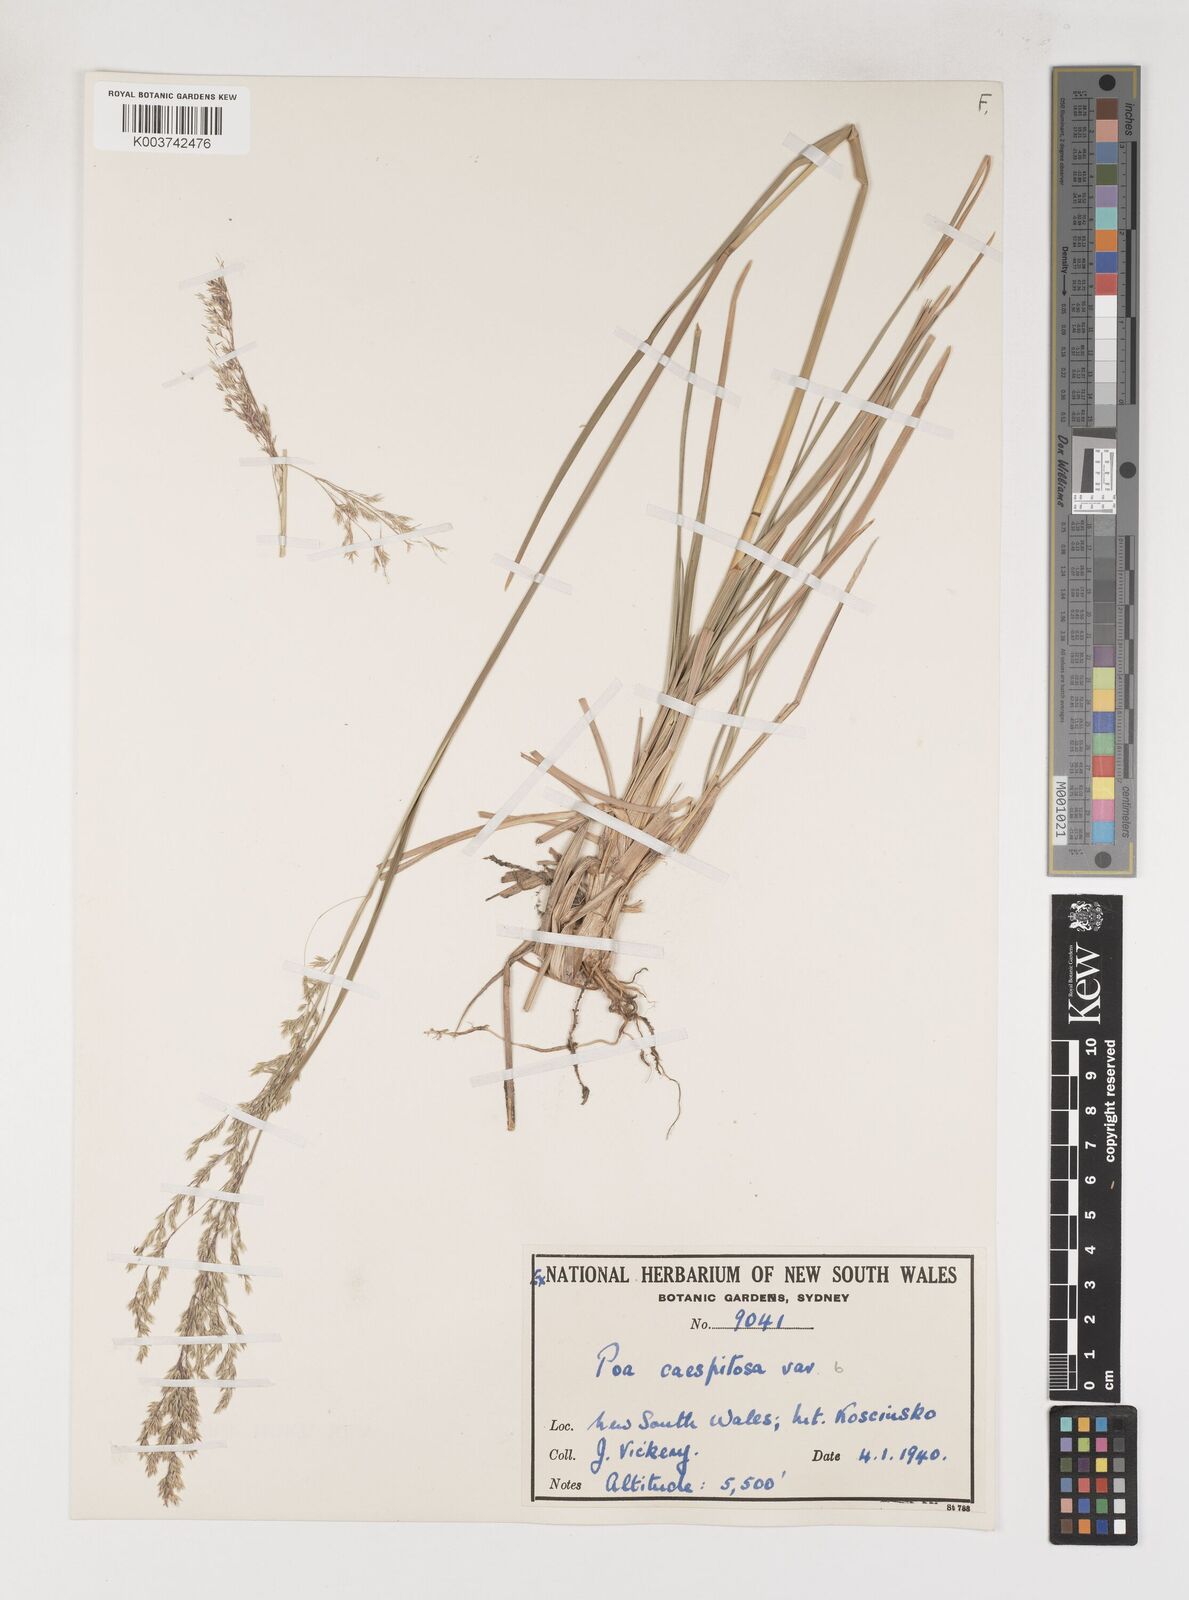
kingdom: Plantae
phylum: Tracheophyta
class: Liliopsida
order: Poales
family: Poaceae
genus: Poa
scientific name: Poa
